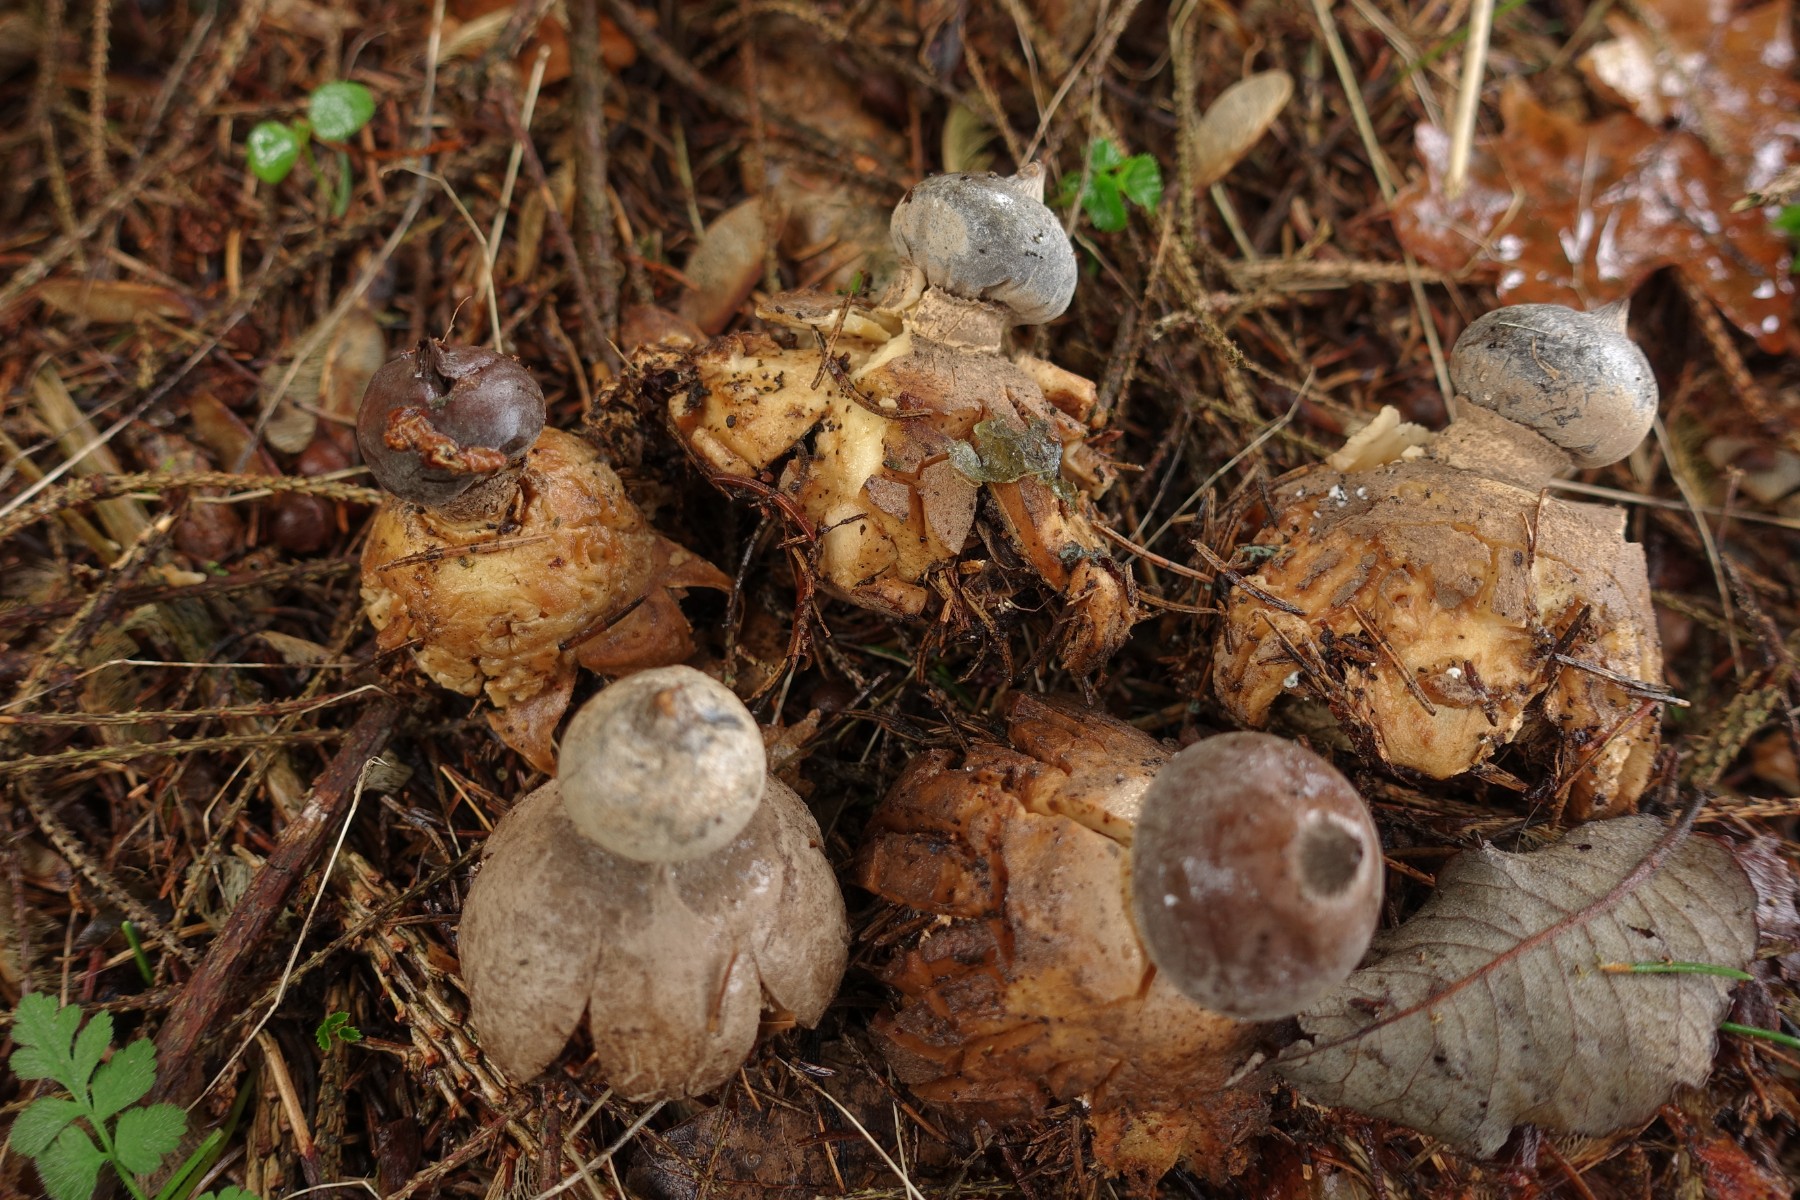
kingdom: Fungi
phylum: Basidiomycota
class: Agaricomycetes
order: Geastrales
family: Geastraceae
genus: Geastrum
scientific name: Geastrum pectinatum
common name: stilket stjernebold
